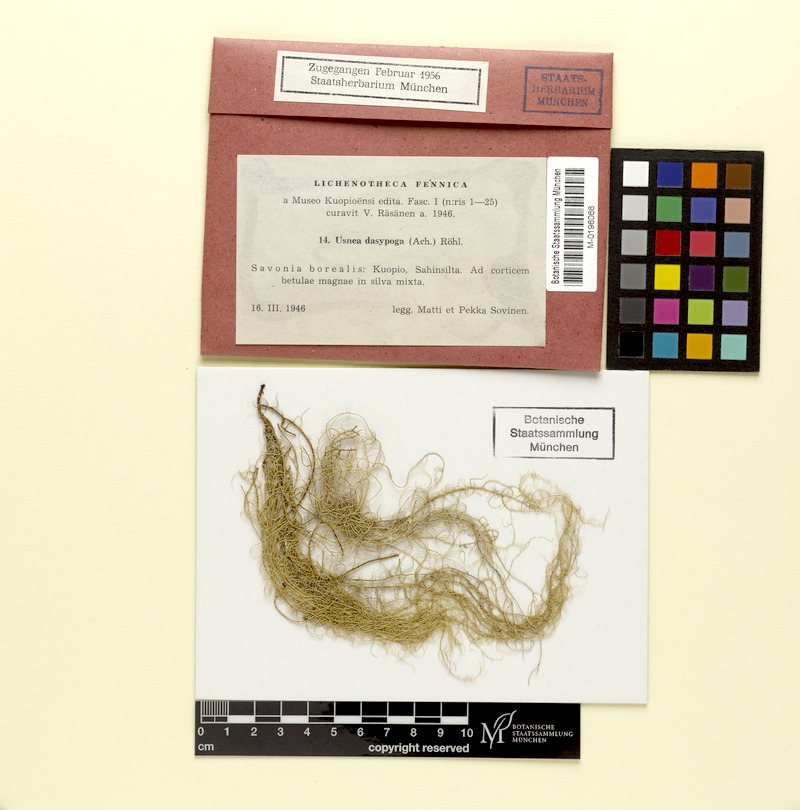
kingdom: Fungi
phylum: Ascomycota
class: Lecanoromycetes
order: Lecanorales
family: Parmeliaceae
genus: Usnea
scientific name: Usnea dasopoga
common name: Fishbone beard lichen
